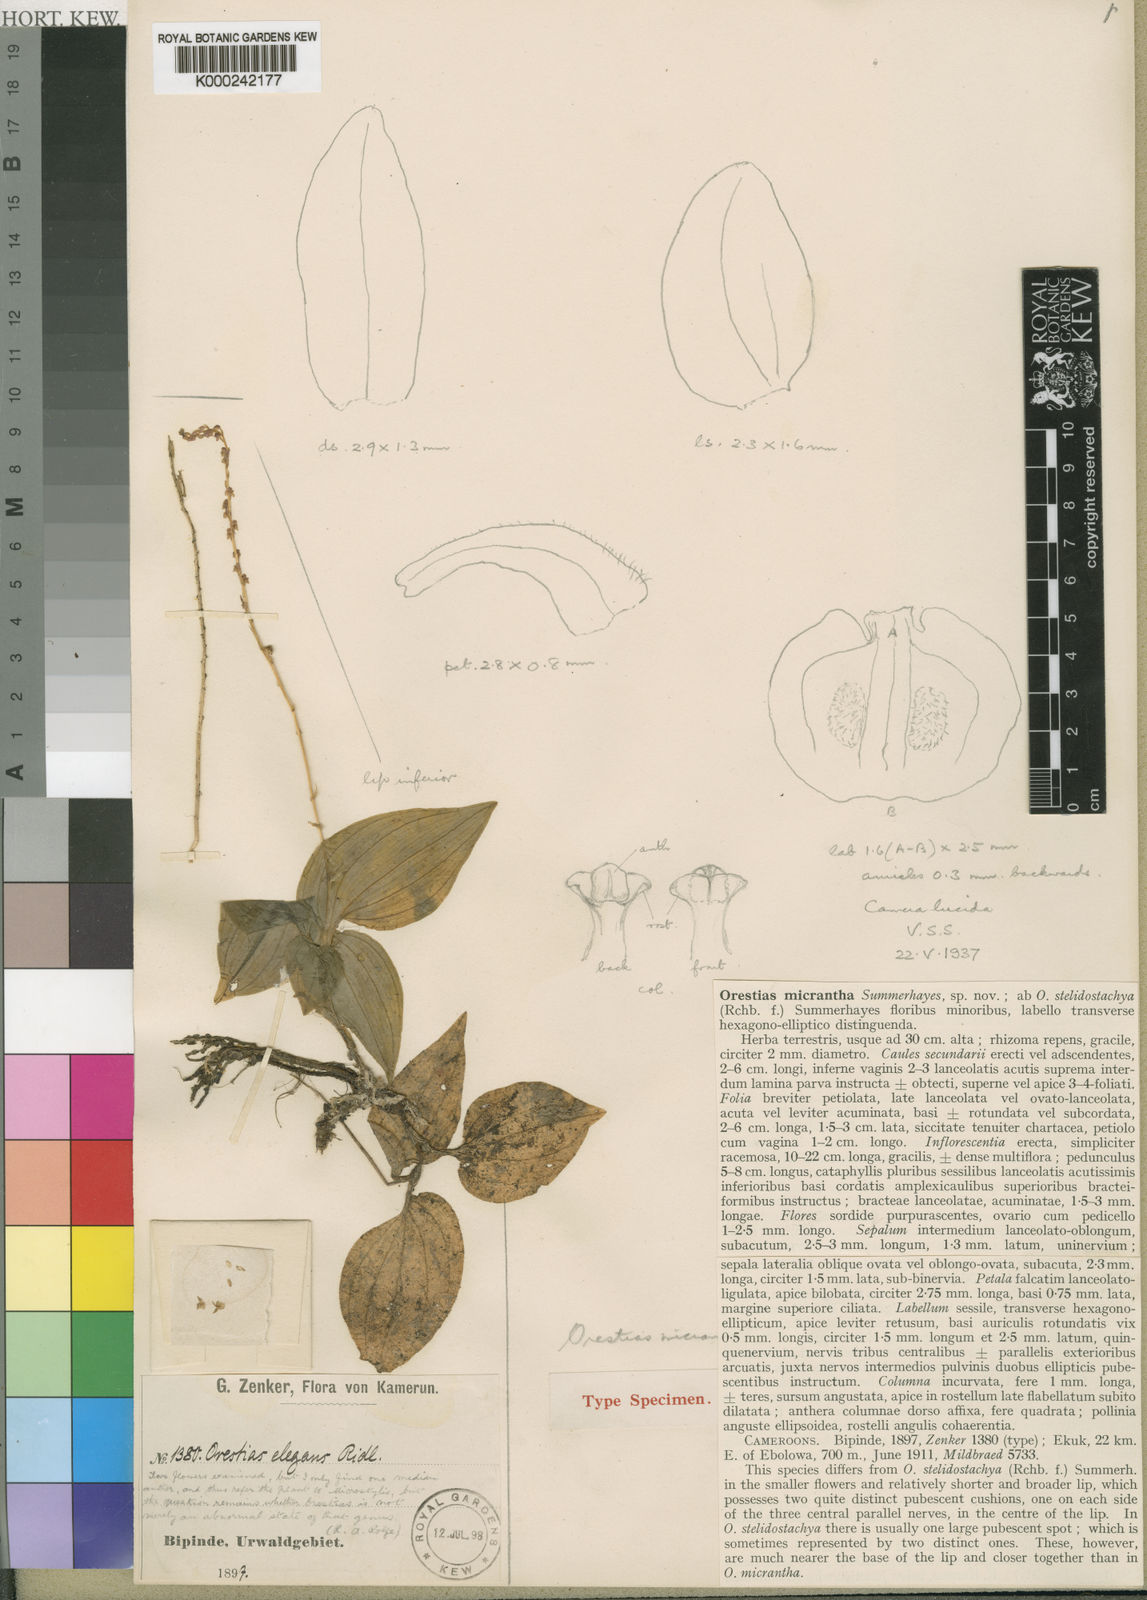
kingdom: Plantae
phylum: Tracheophyta
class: Liliopsida
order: Asparagales
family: Orchidaceae
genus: Orestias
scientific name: Orestias micrantha
